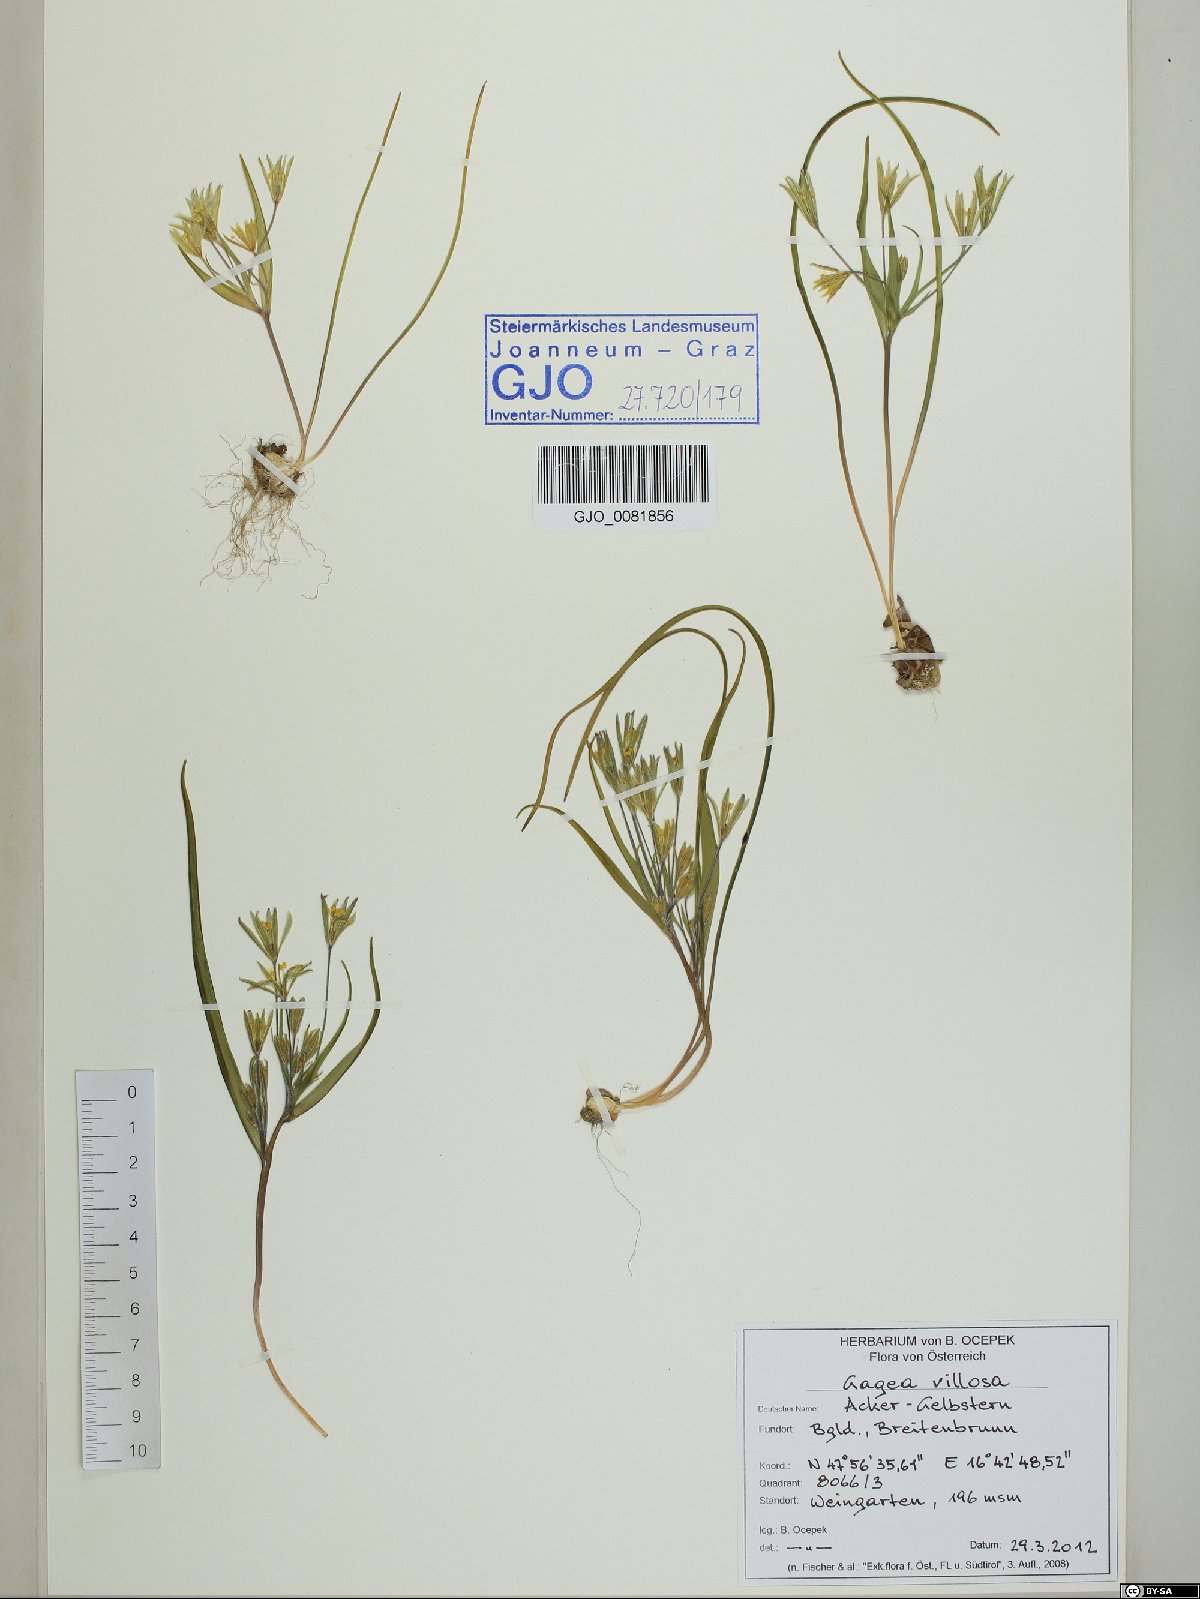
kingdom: Plantae
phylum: Tracheophyta
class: Liliopsida
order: Liliales
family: Liliaceae
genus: Gagea
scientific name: Gagea villosa
